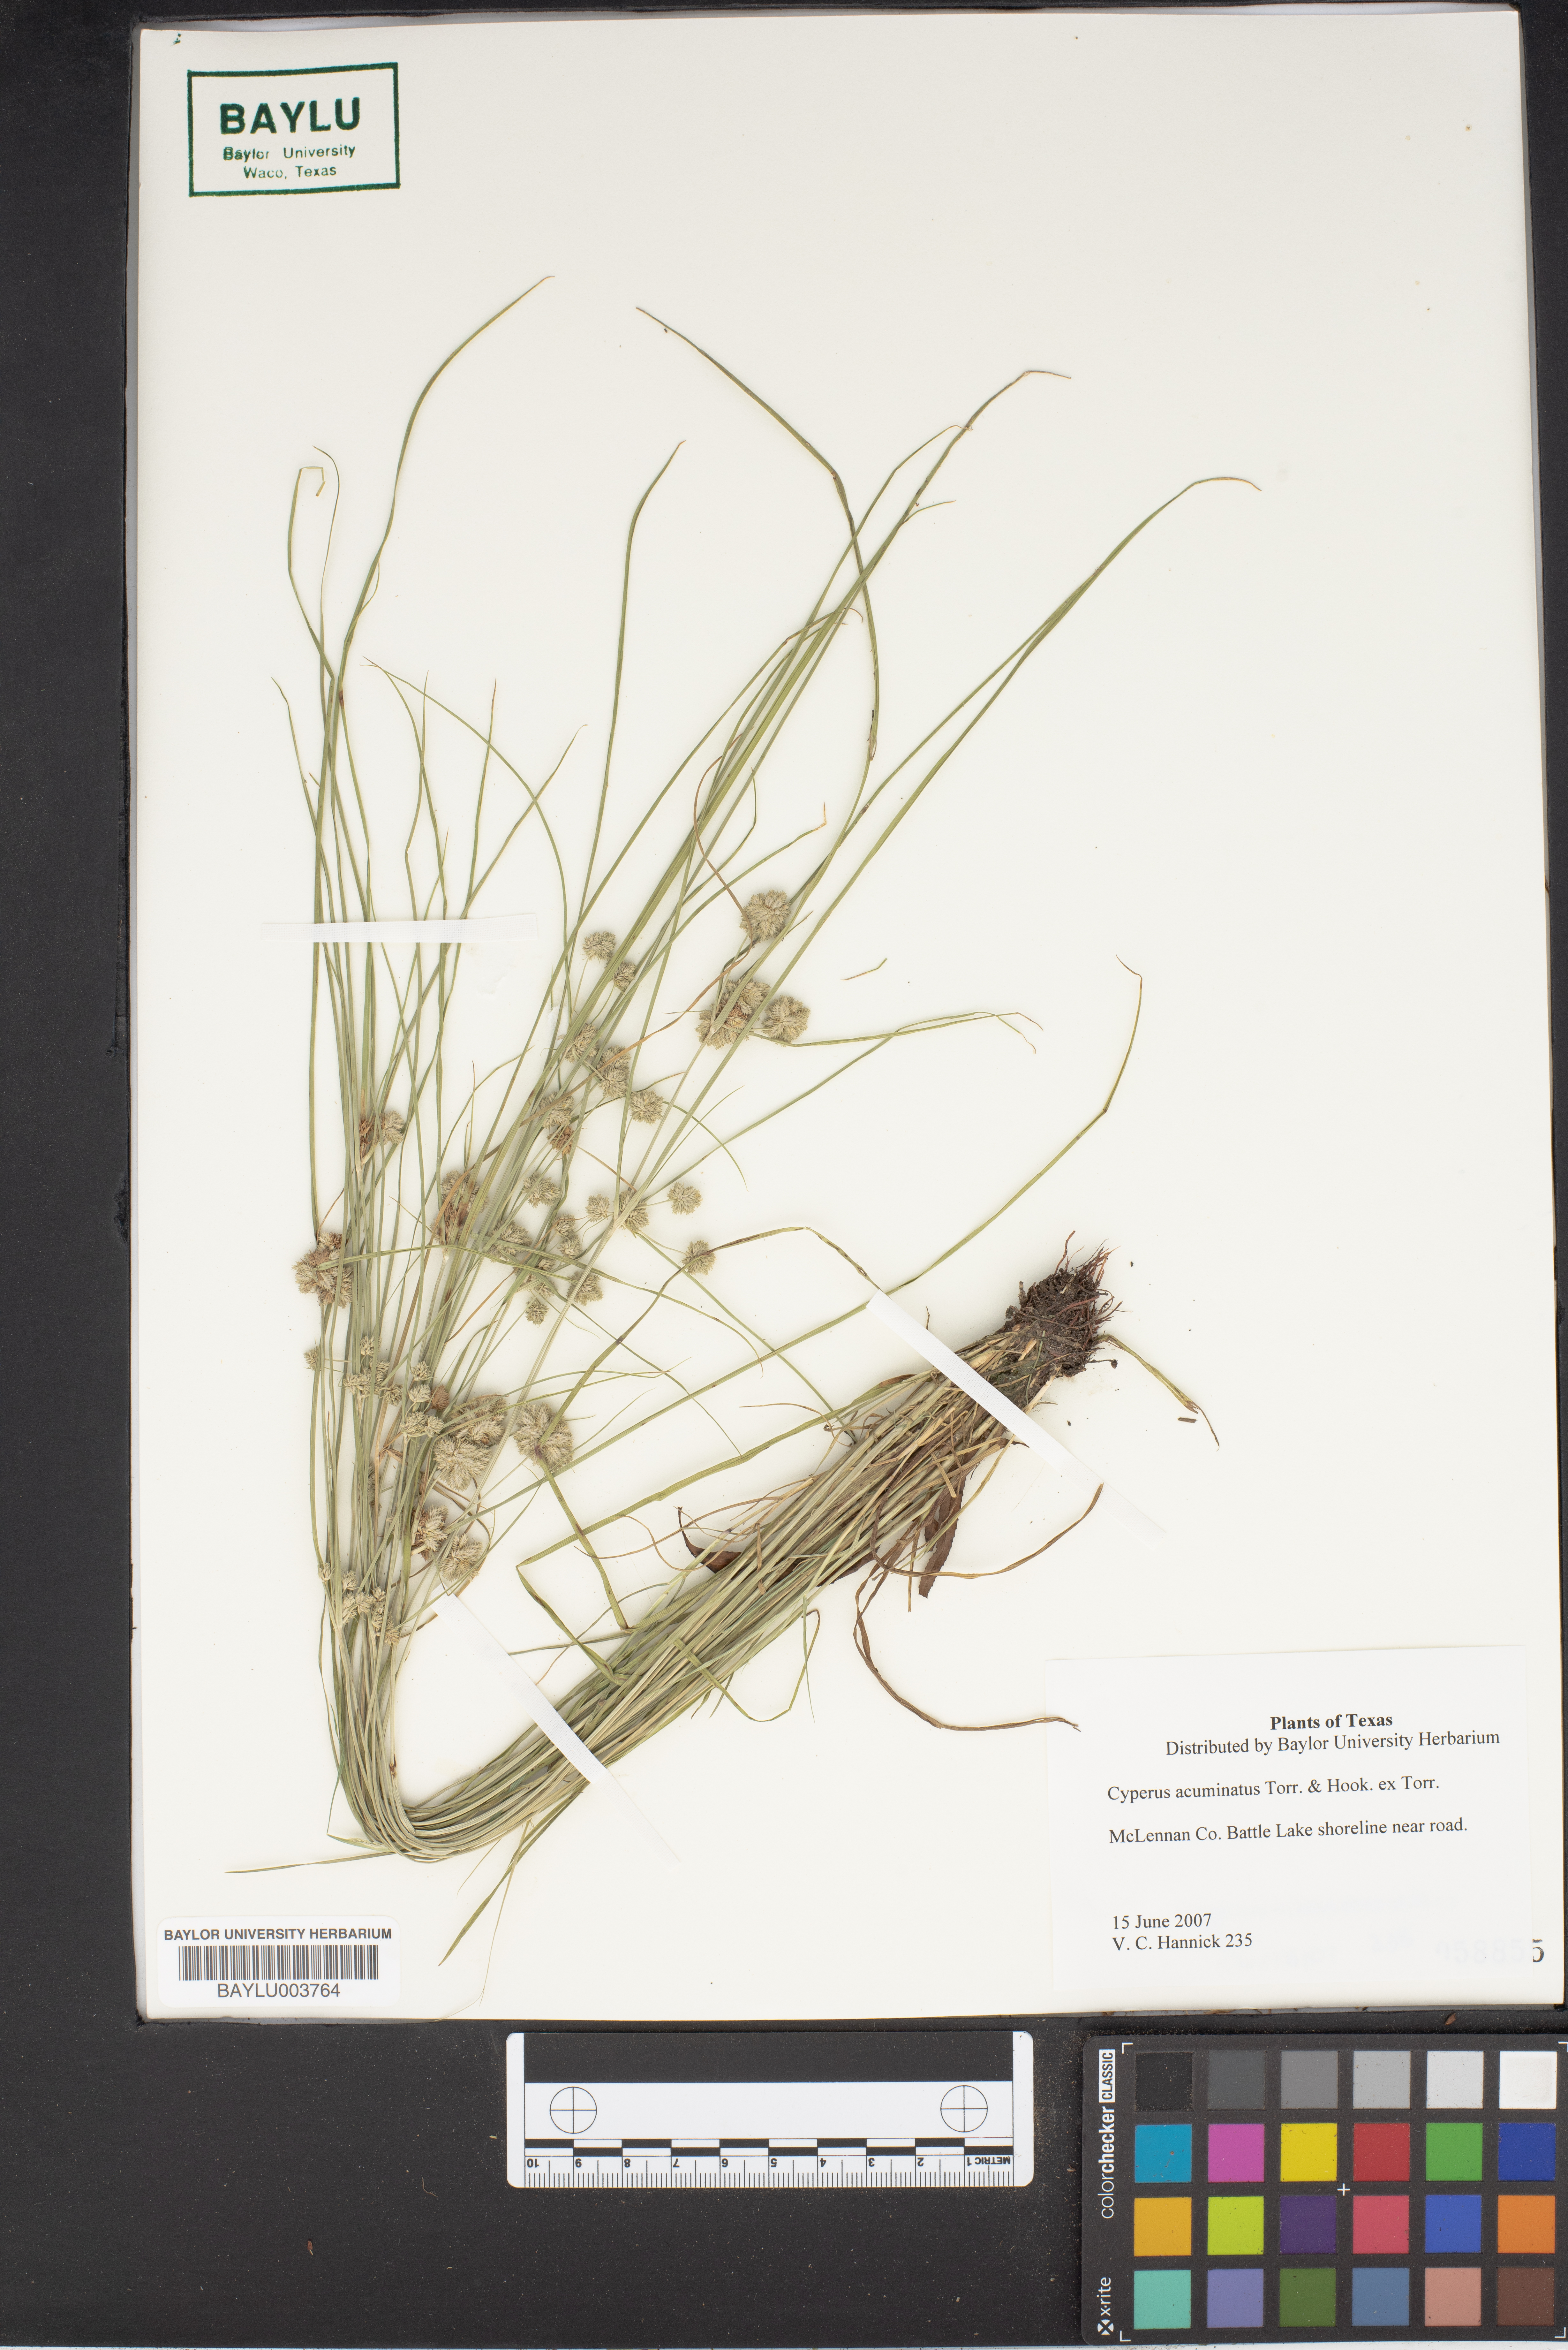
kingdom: Plantae
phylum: Tracheophyta
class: Liliopsida
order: Poales
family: Cyperaceae
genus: Cyperus
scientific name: Cyperus acuminatus
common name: Short-pointed cyperus
